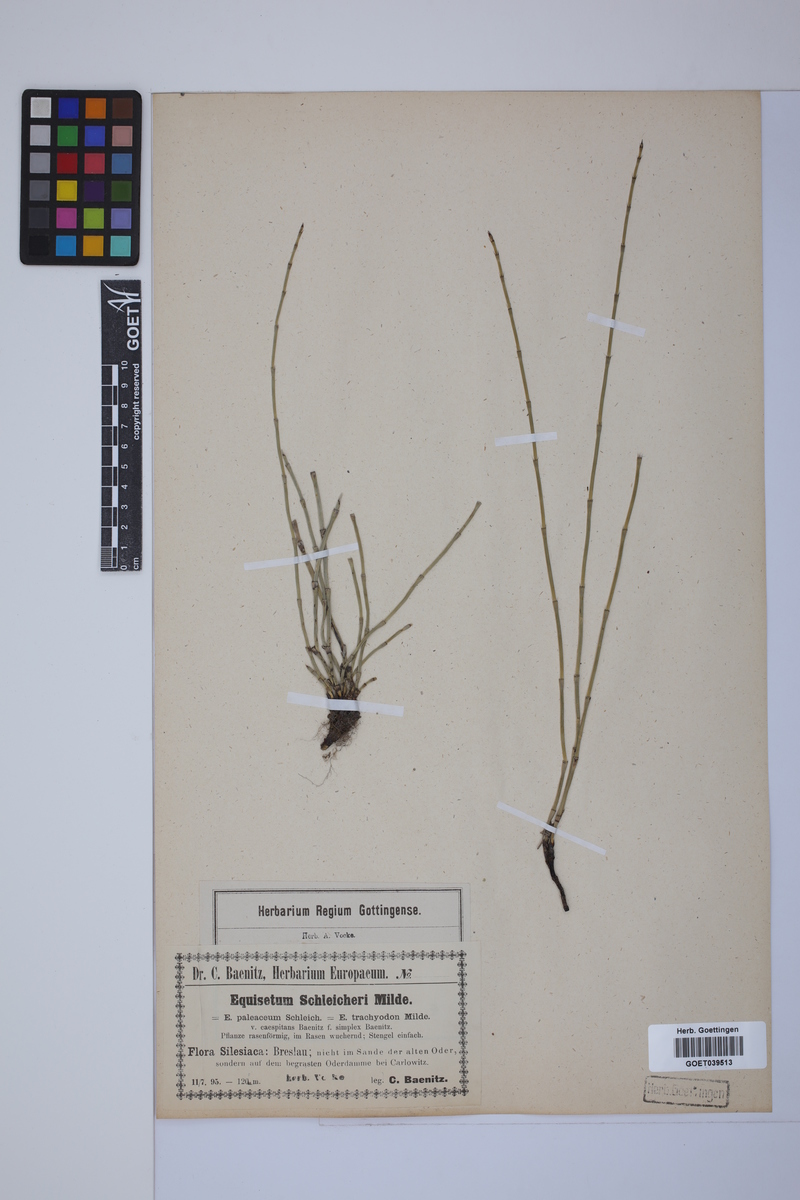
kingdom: Plantae
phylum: Tracheophyta
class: Polypodiopsida
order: Equisetales
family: Equisetaceae
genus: Equisetum
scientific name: Equisetum trachyodon
